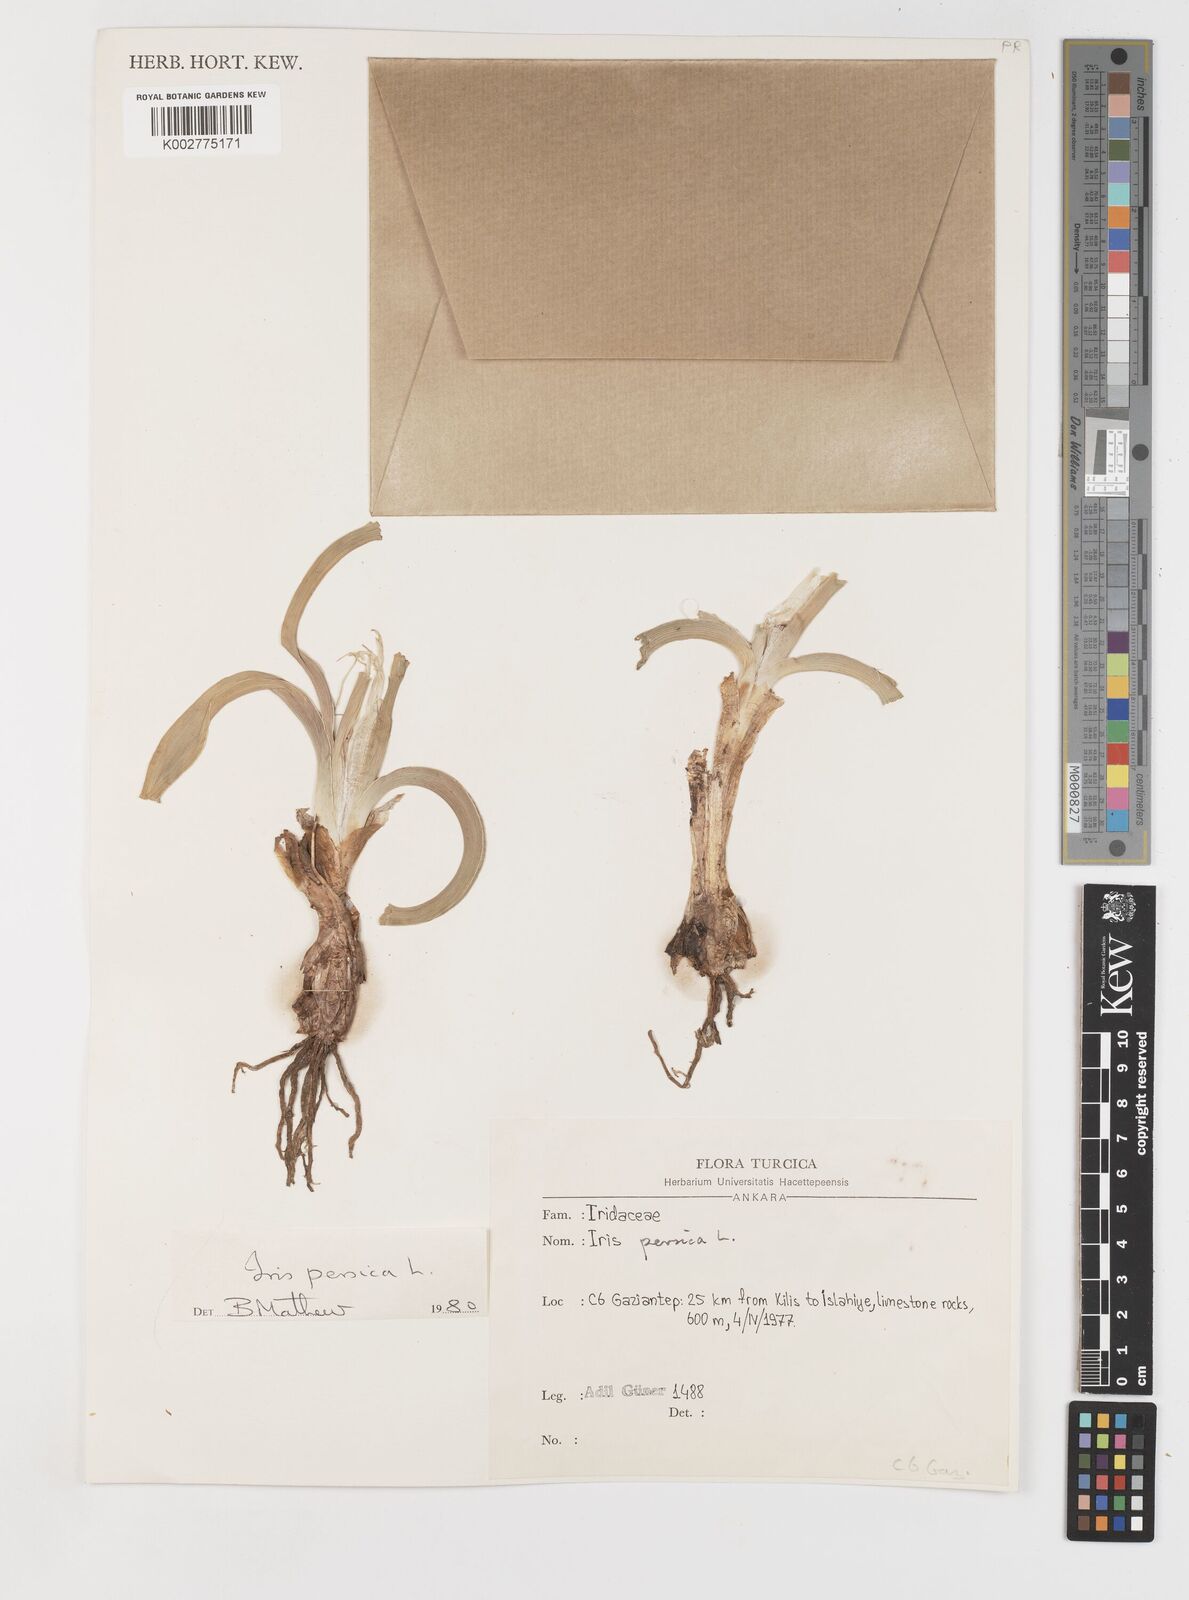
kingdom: Plantae
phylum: Tracheophyta
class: Liliopsida
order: Asparagales
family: Iridaceae
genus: Iris
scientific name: Iris persica
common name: Persian iris
